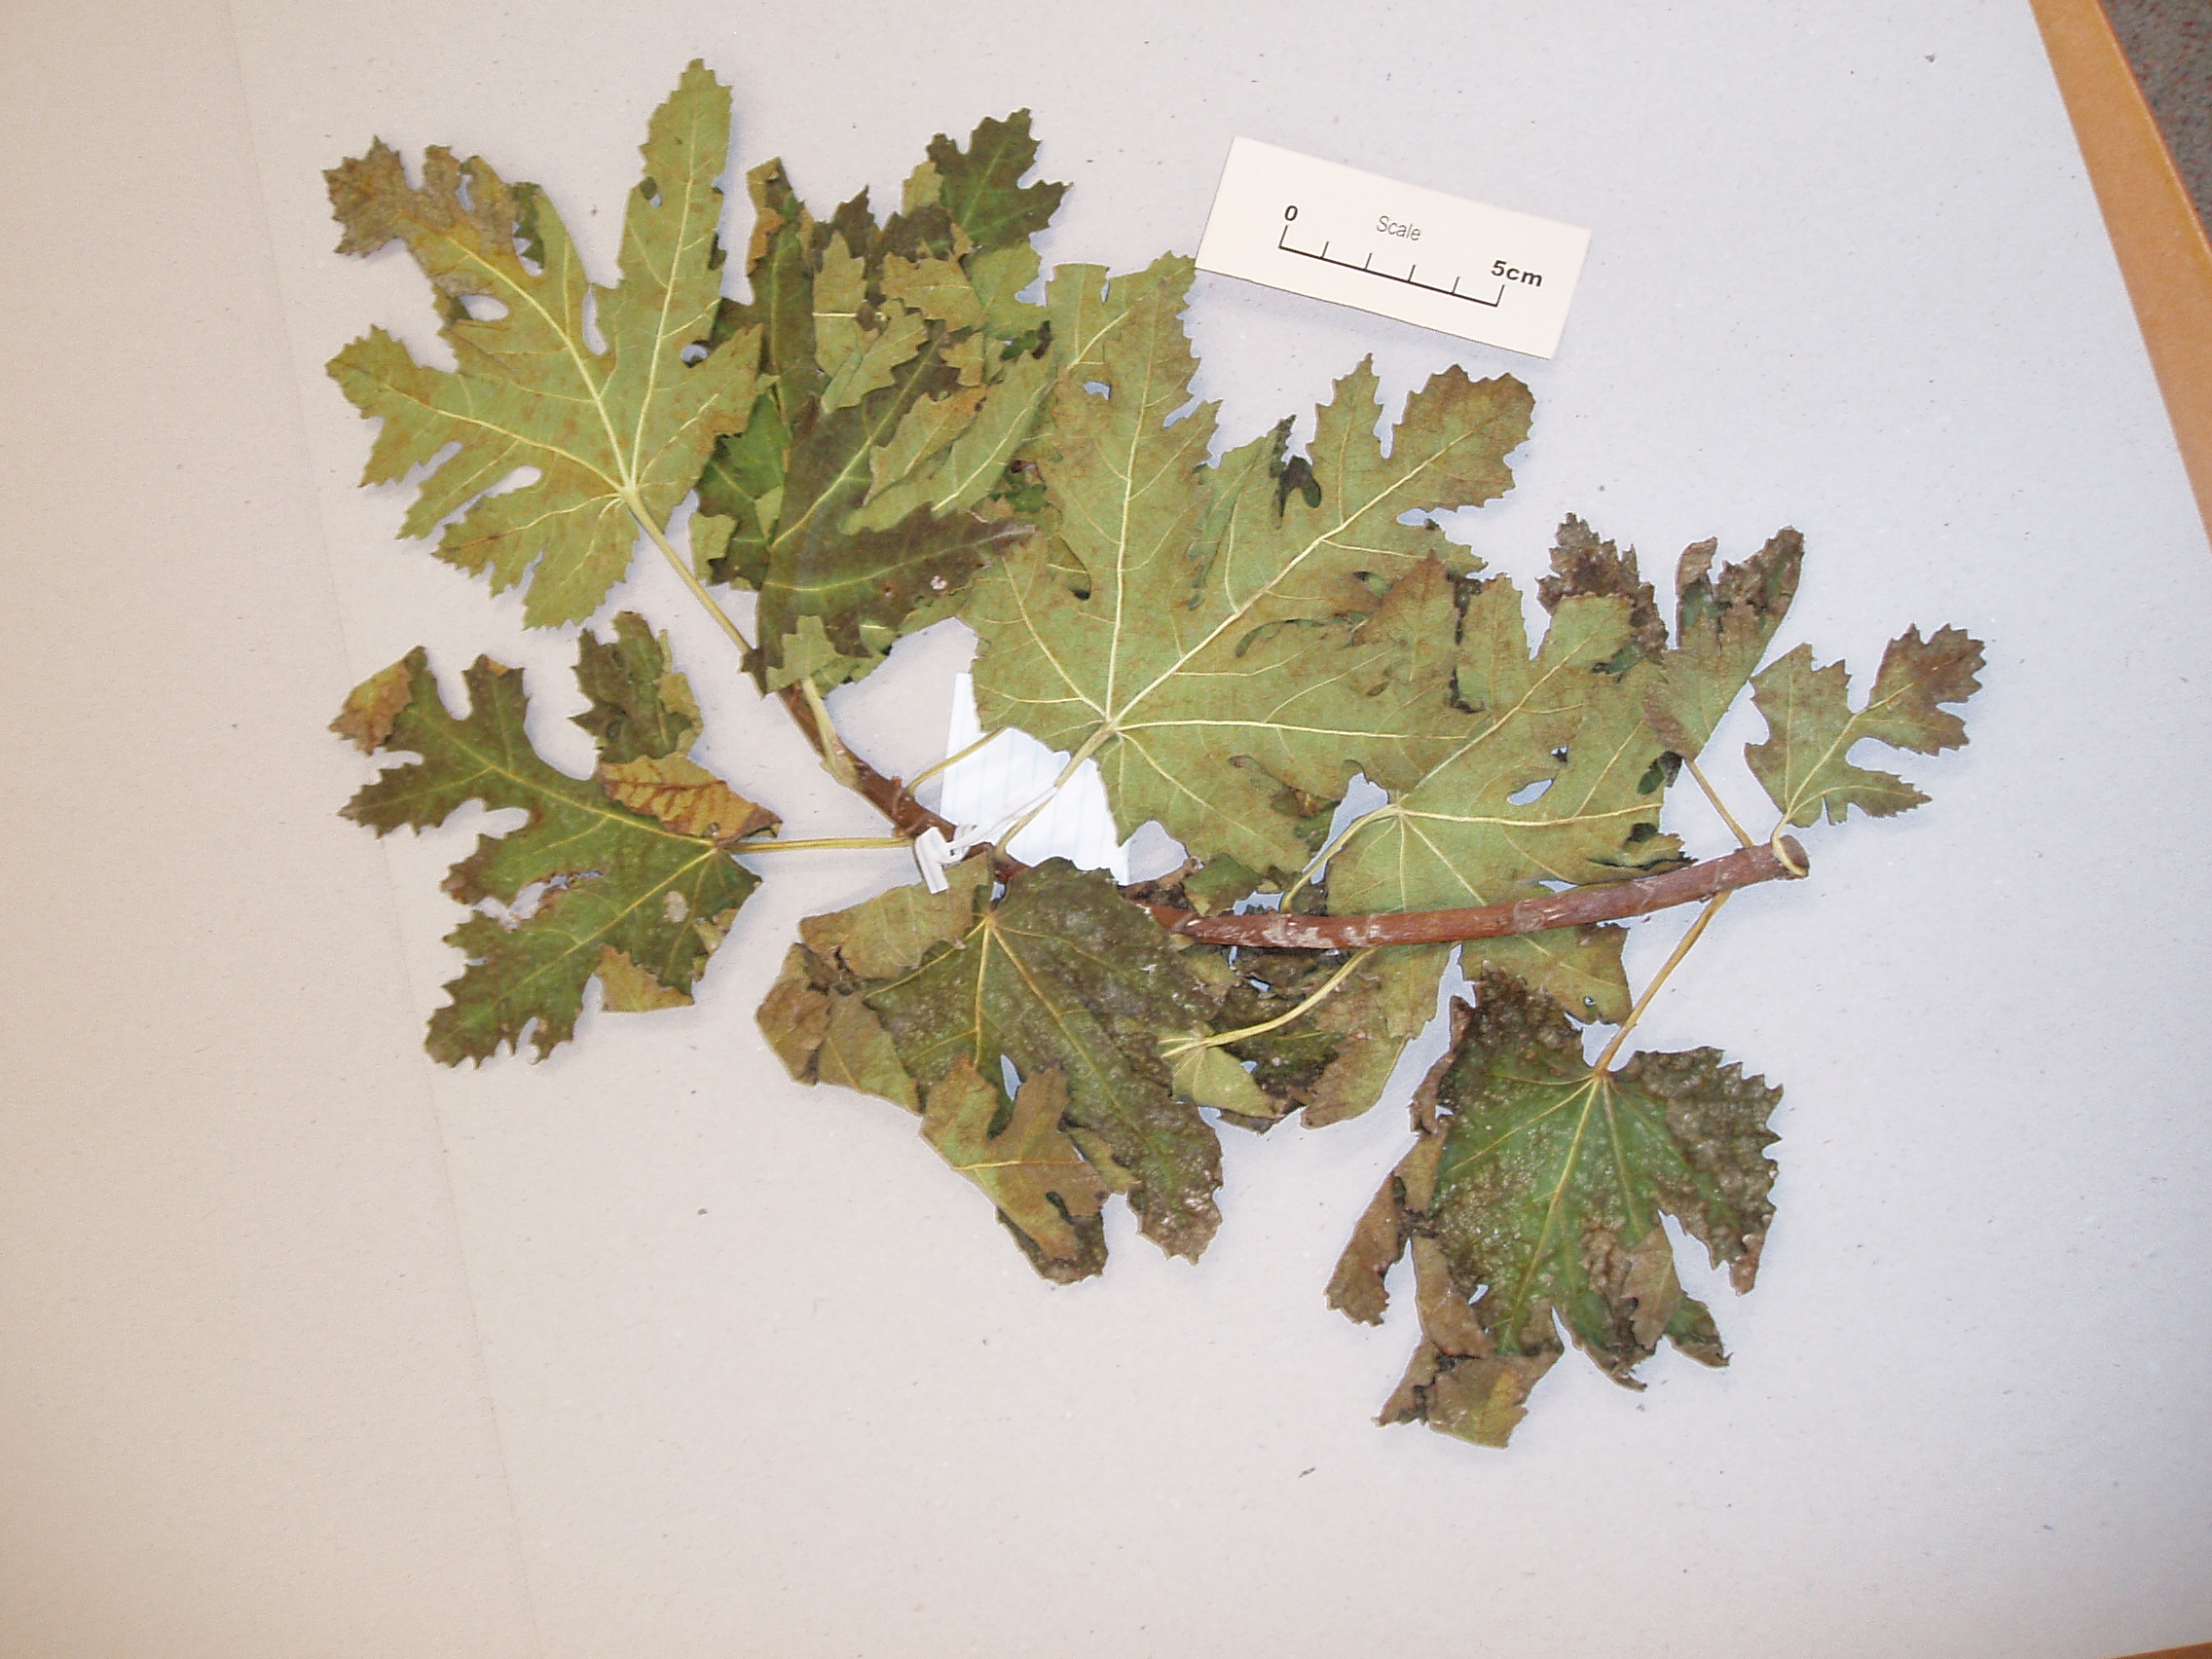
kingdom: Plantae
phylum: Tracheophyta
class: Magnoliopsida
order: Rosales
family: Moraceae
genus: Ficus
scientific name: Ficus sycomorus
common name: Sycomore
